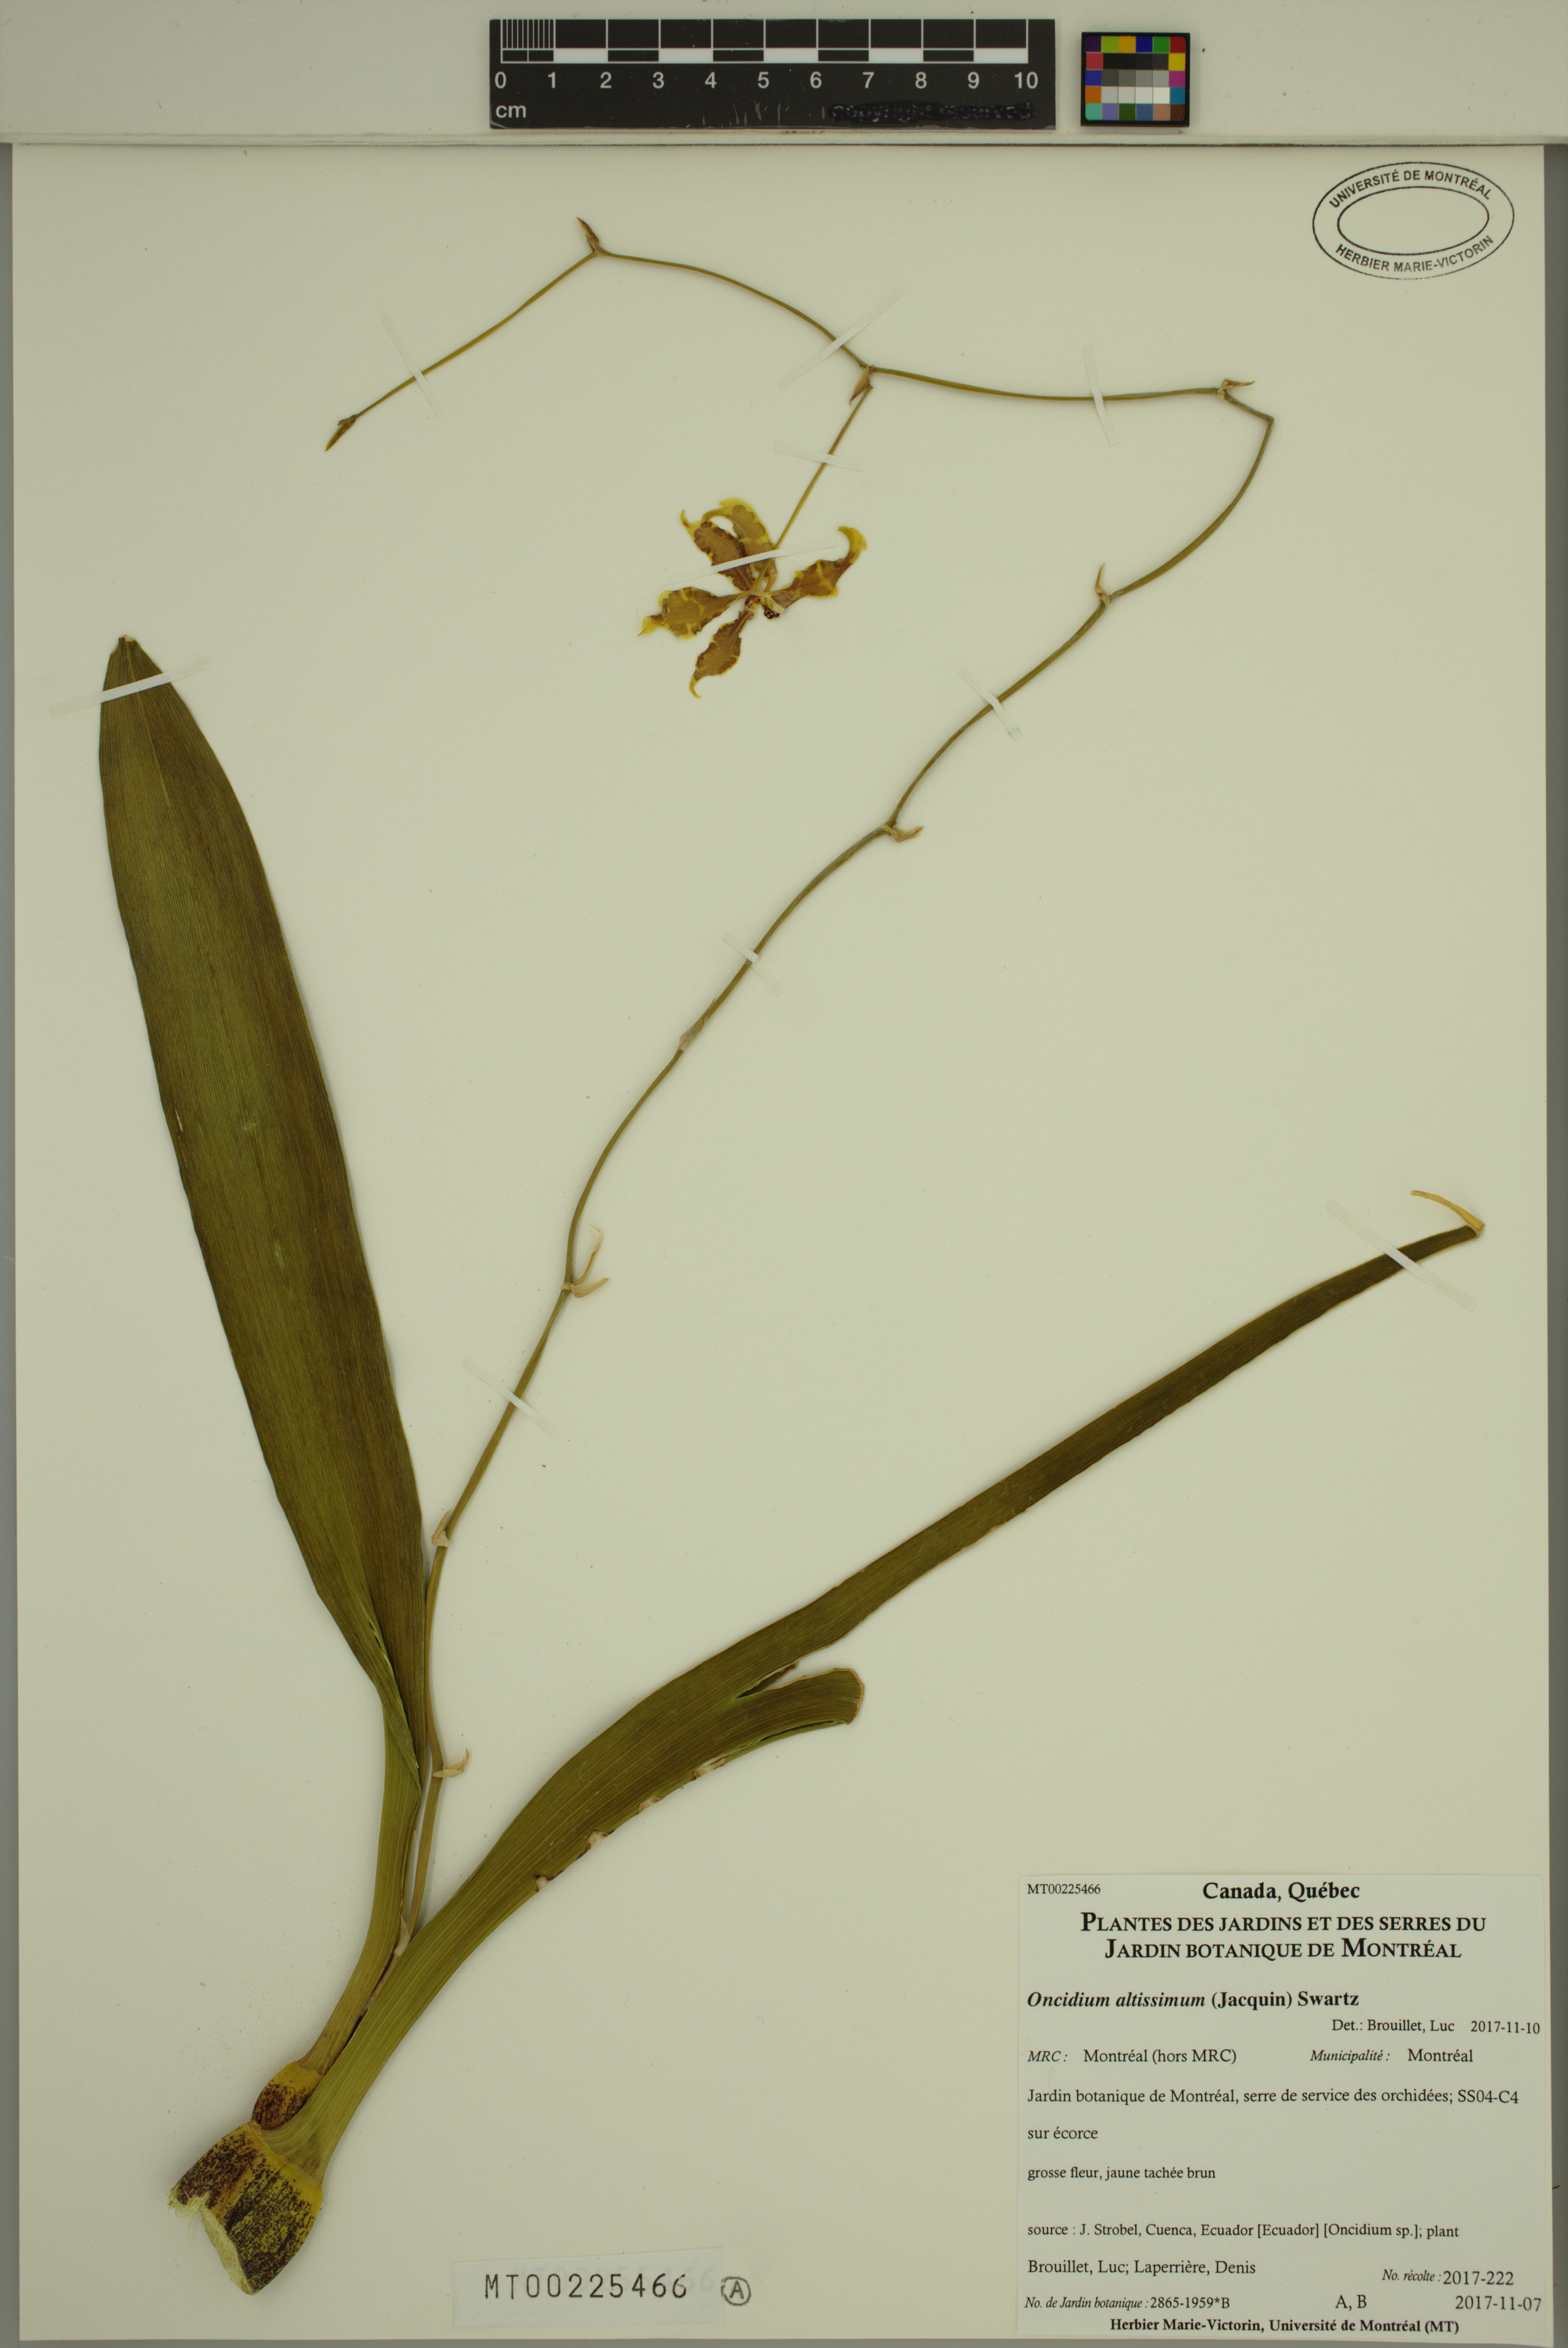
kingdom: Plantae
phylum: Tracheophyta
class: Liliopsida
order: Asparagales
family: Orchidaceae
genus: Oncidium
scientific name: Oncidium altissimum
